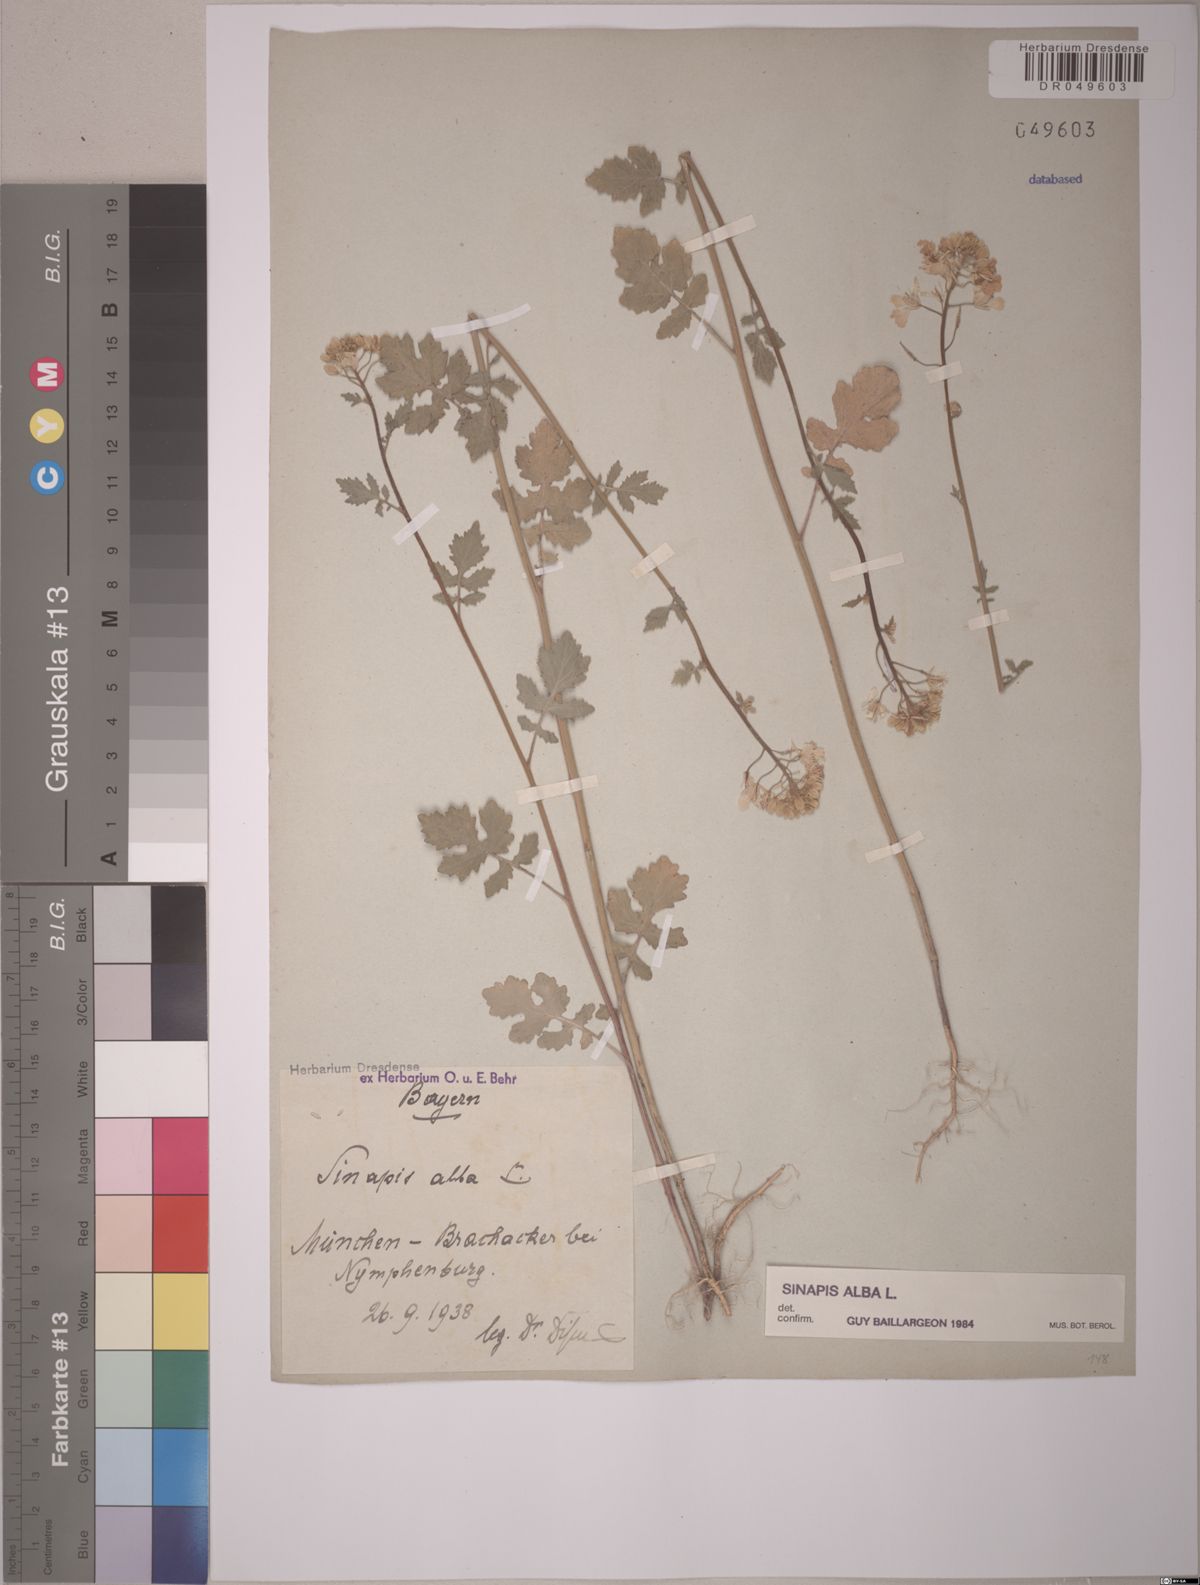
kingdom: Plantae
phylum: Tracheophyta
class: Magnoliopsida
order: Brassicales
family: Brassicaceae
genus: Sinapis
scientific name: Sinapis alba
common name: White mustard
